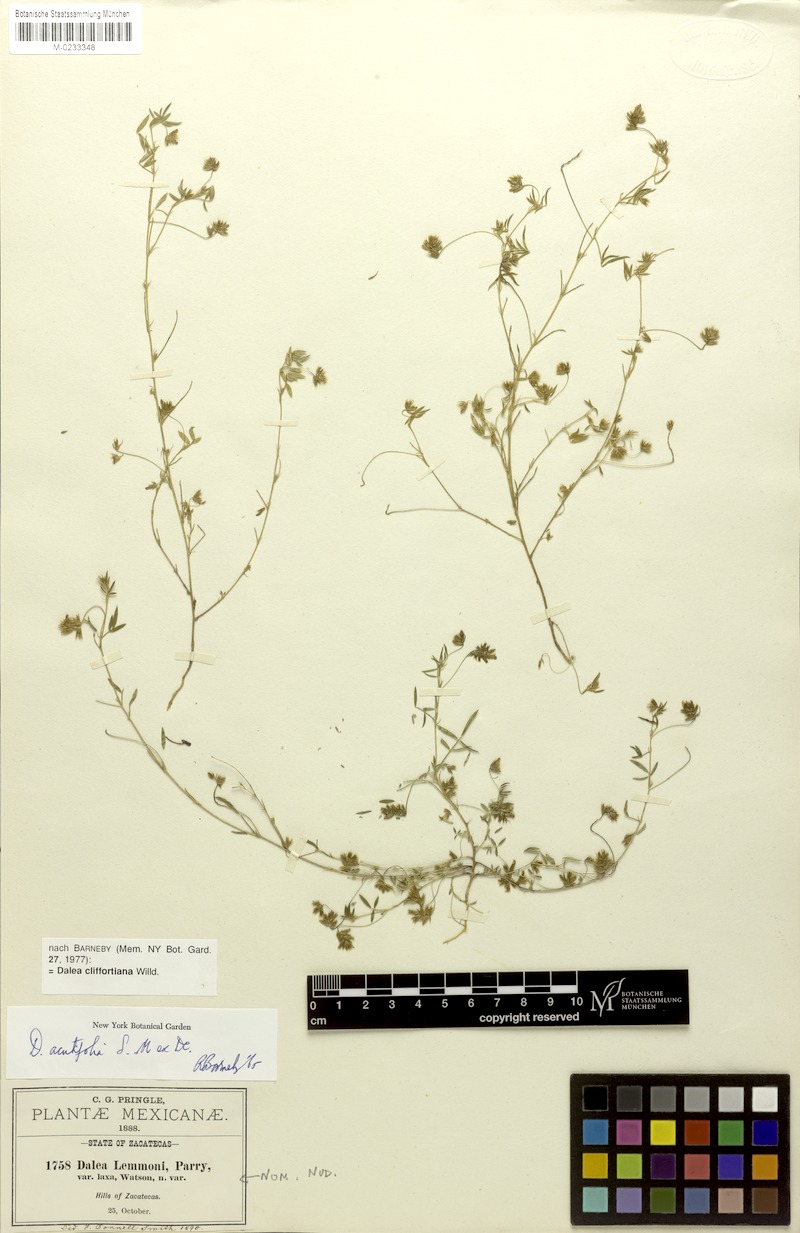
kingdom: Plantae
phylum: Tracheophyta
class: Magnoliopsida
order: Fabales
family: Fabaceae
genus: Dalea
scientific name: Dalea cliffortiana
